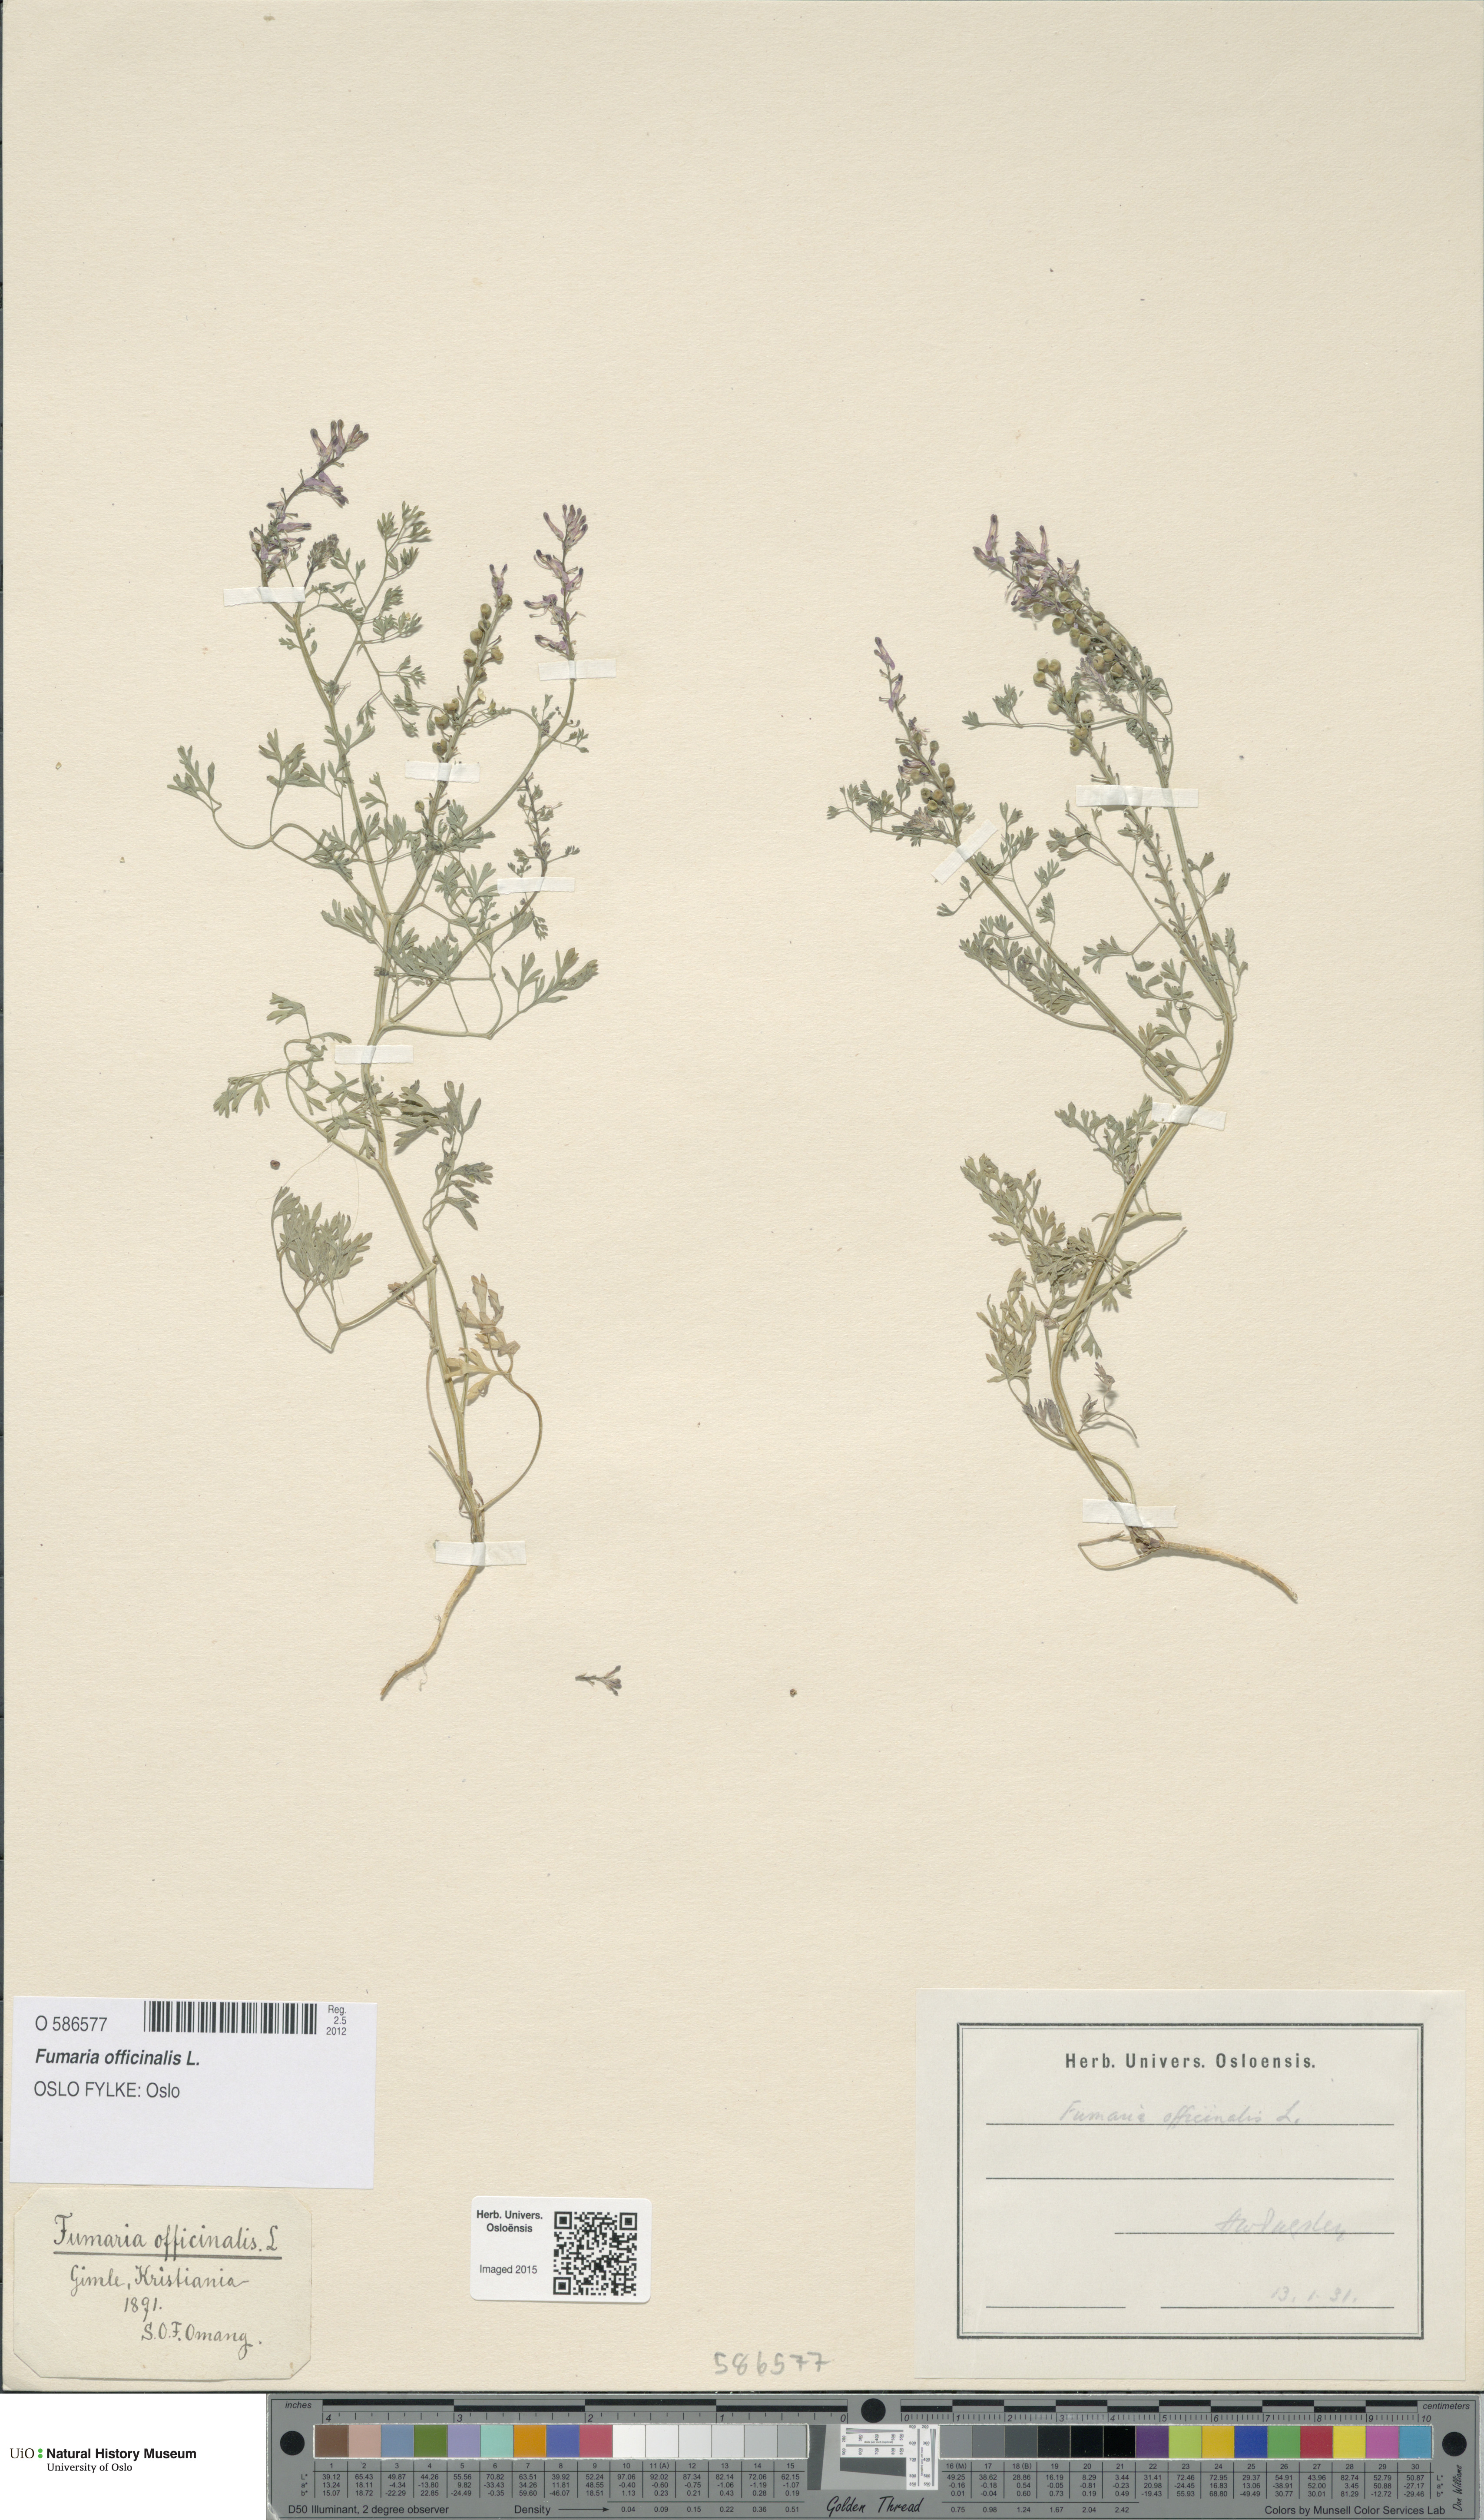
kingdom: Plantae
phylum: Tracheophyta
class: Magnoliopsida
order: Ranunculales
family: Papaveraceae
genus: Fumaria
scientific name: Fumaria officinalis
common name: Common fumitory
